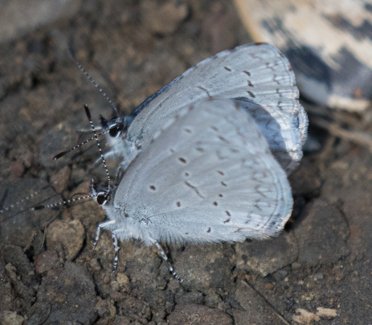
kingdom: Animalia
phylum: Arthropoda
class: Insecta
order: Lepidoptera
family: Lycaenidae
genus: Celastrina
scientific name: Celastrina ladon
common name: Spring Azure
